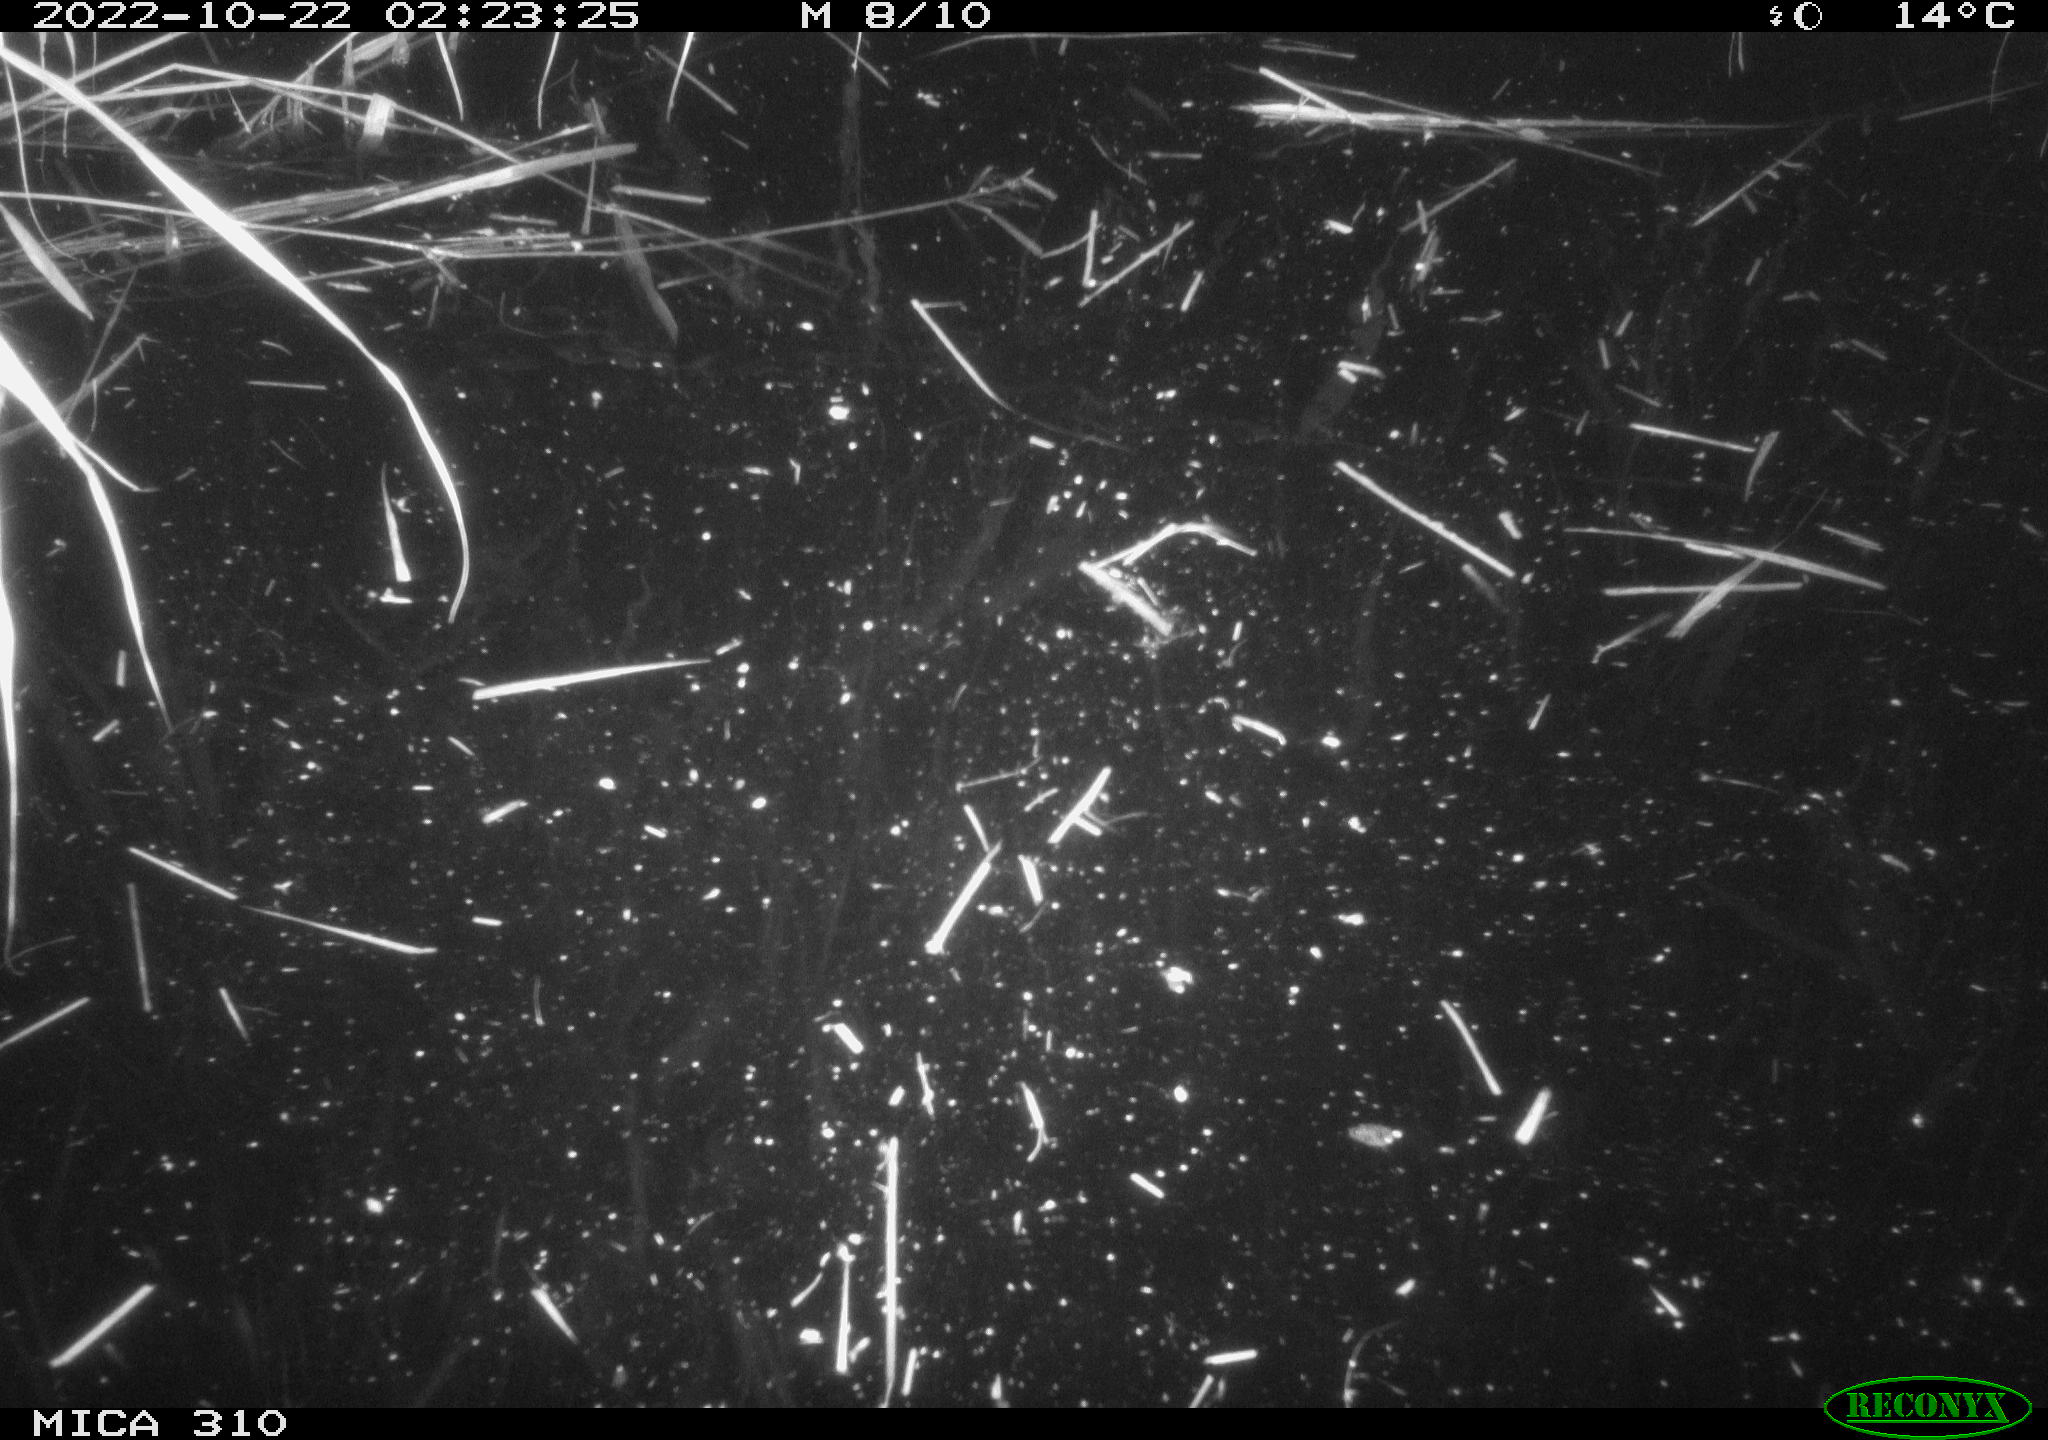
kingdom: Animalia
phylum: Chordata
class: Mammalia
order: Rodentia
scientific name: Rodentia
